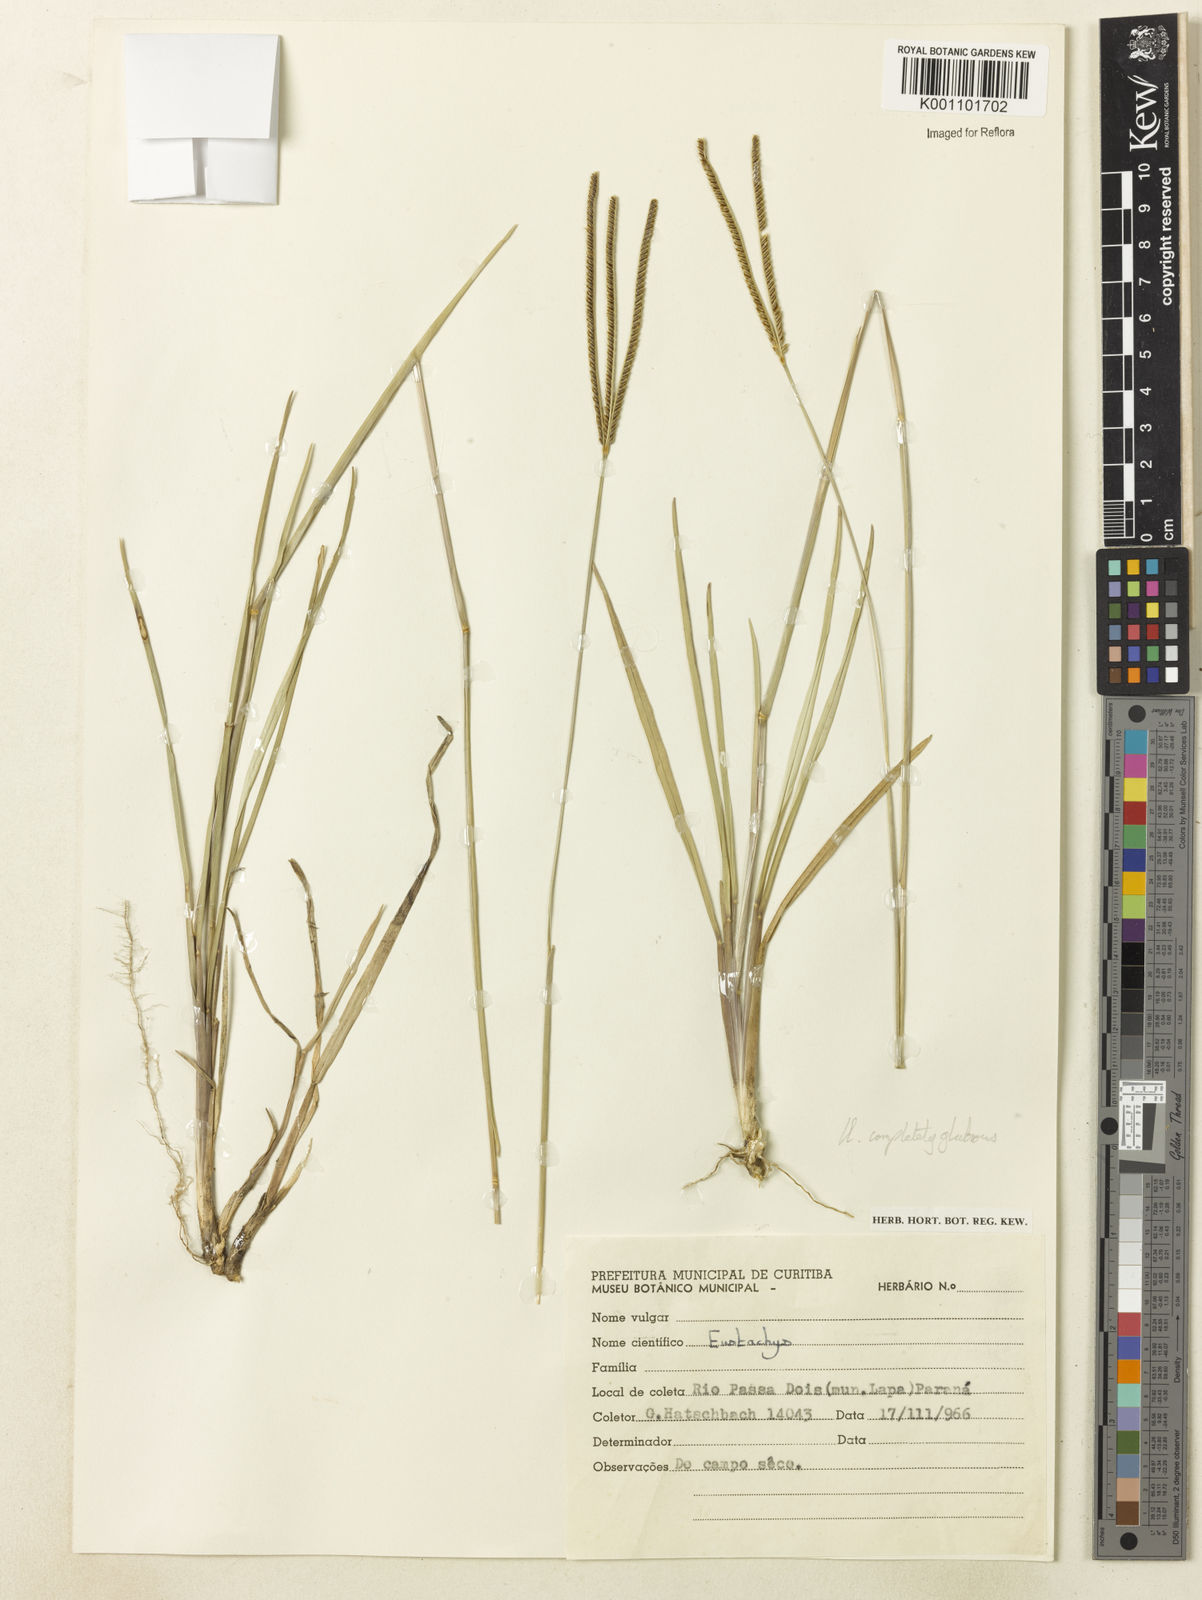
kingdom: Plantae
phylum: Tracheophyta
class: Liliopsida
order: Poales
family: Poaceae
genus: Eustachys
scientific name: Eustachys paranensis
